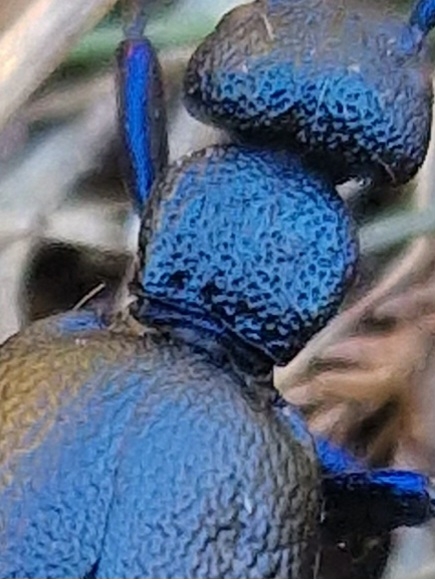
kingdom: Animalia
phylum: Arthropoda
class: Insecta
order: Coleoptera
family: Meloidae
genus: Meloe
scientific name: Meloe violaceus
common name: Blå oliebille
